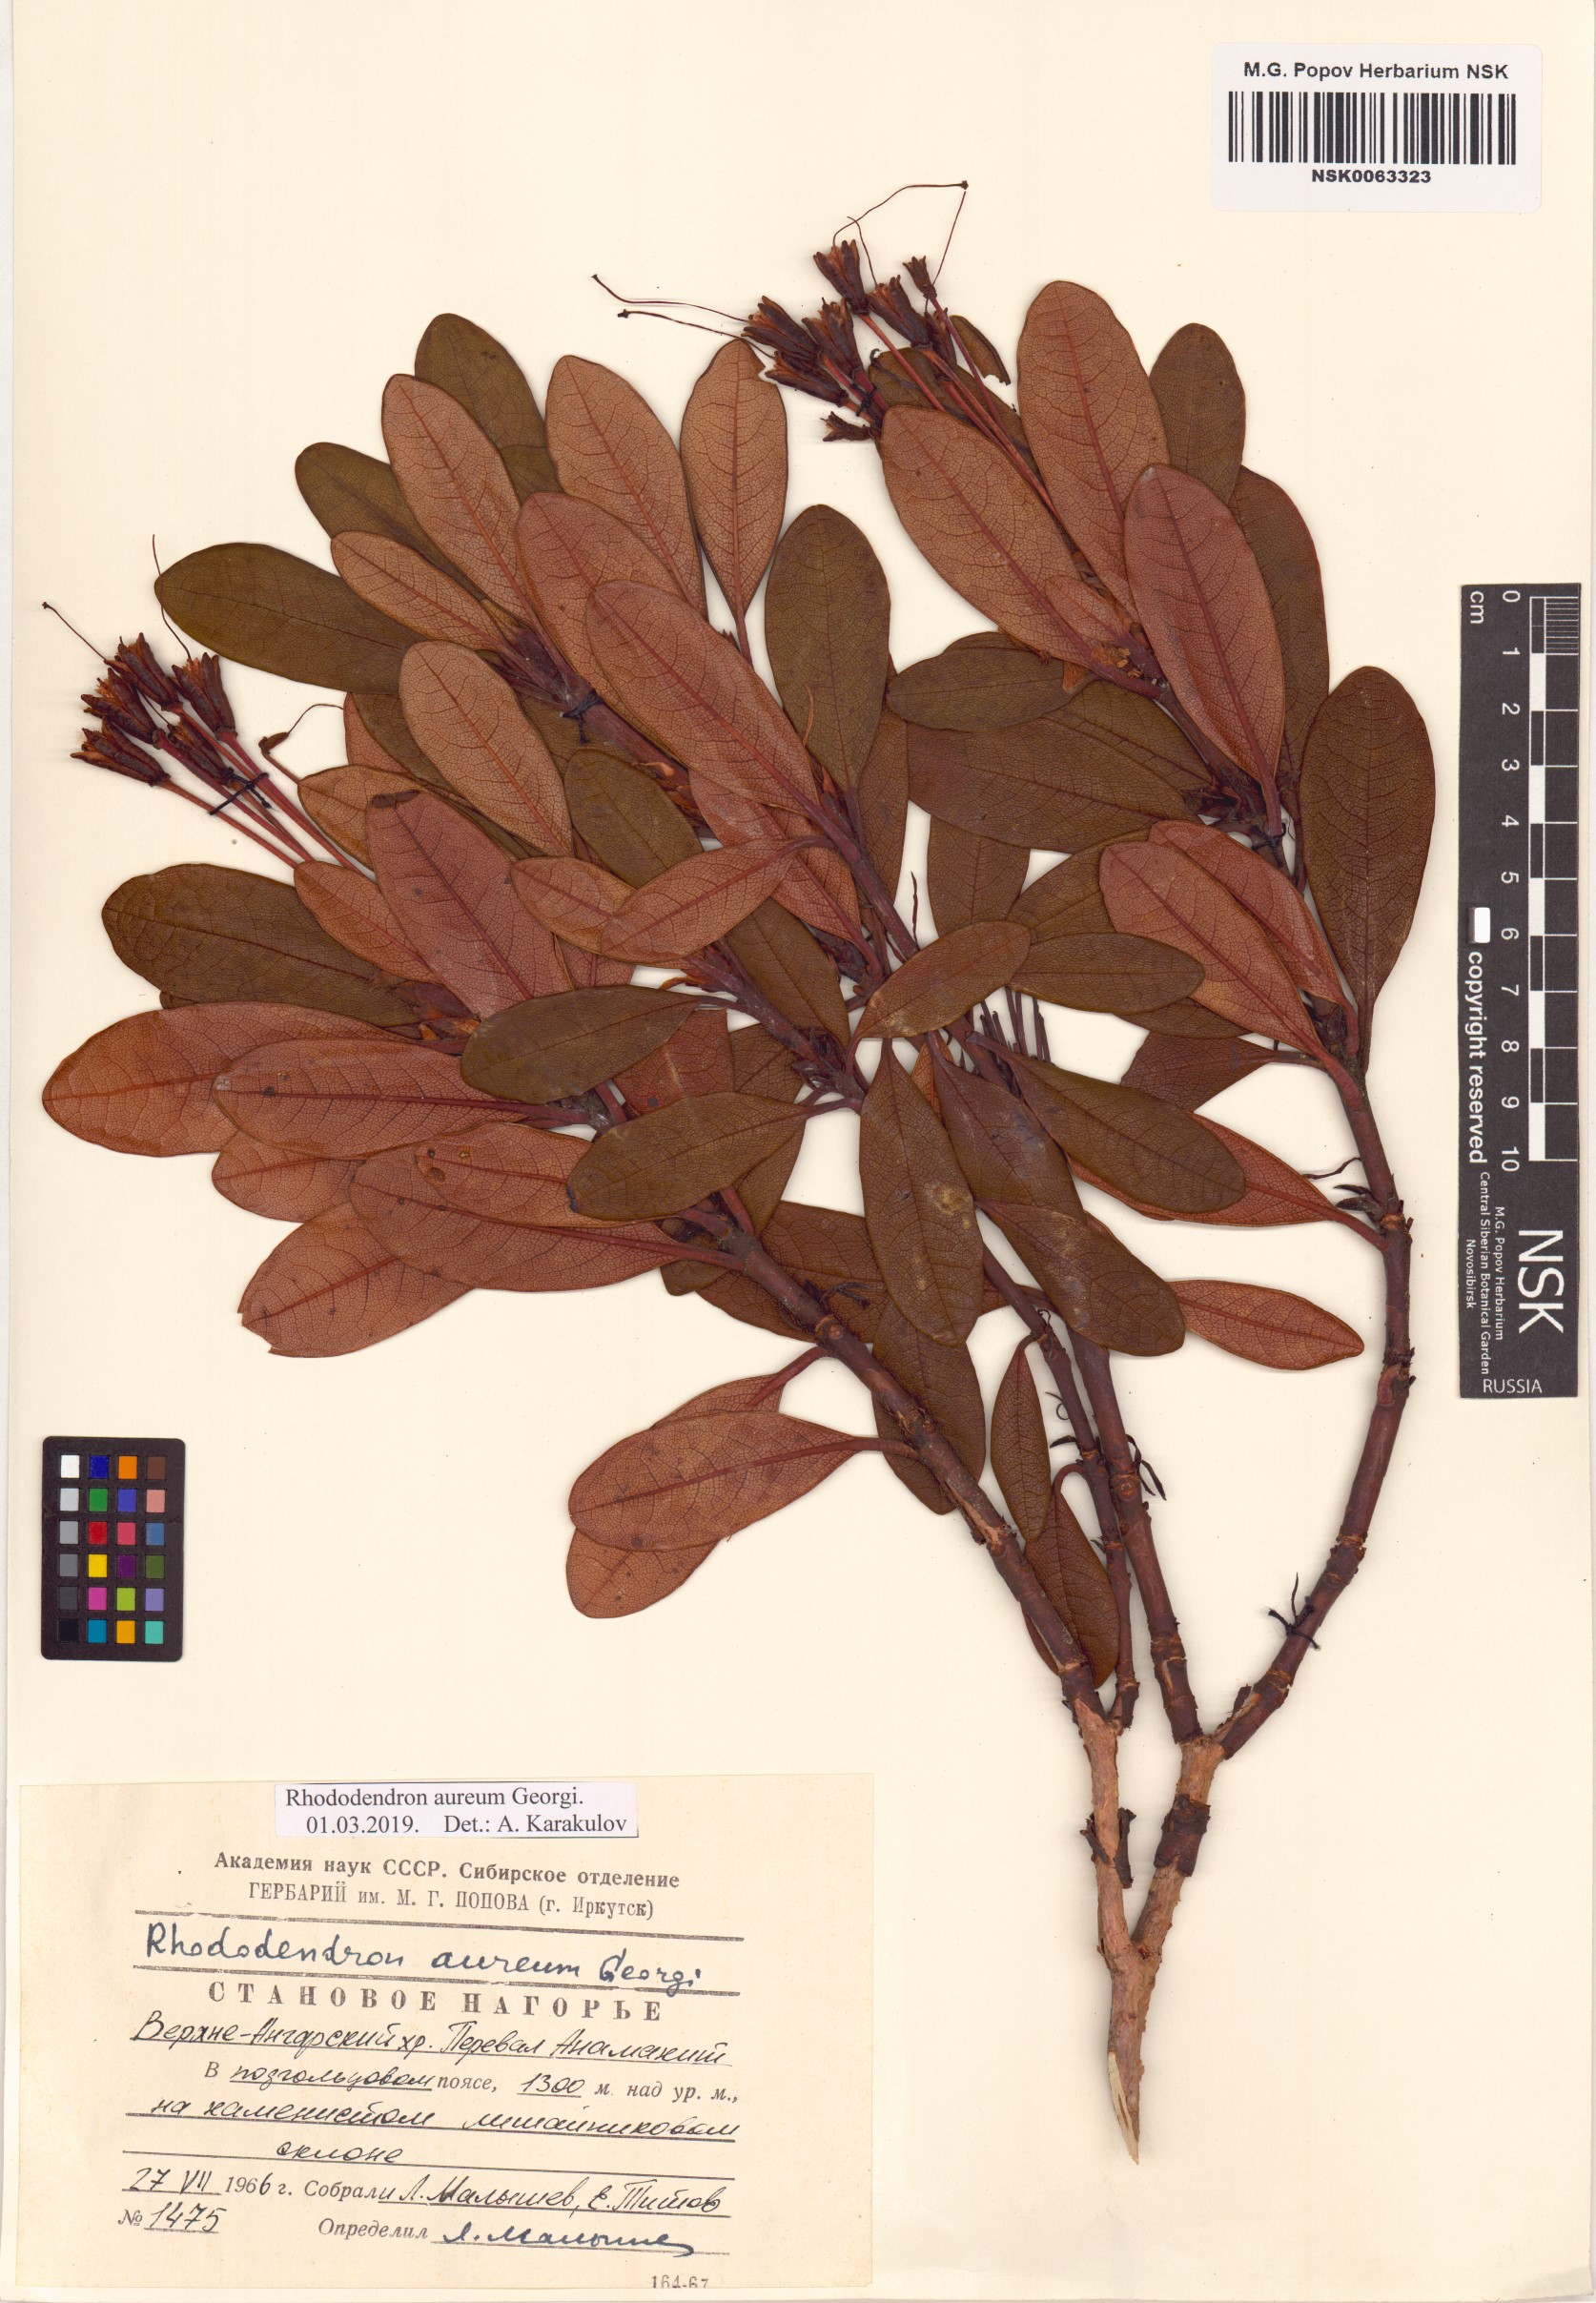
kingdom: Plantae
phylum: Tracheophyta
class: Magnoliopsida
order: Ericales
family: Ericaceae
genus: Rhododendron
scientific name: Rhododendron aureum
